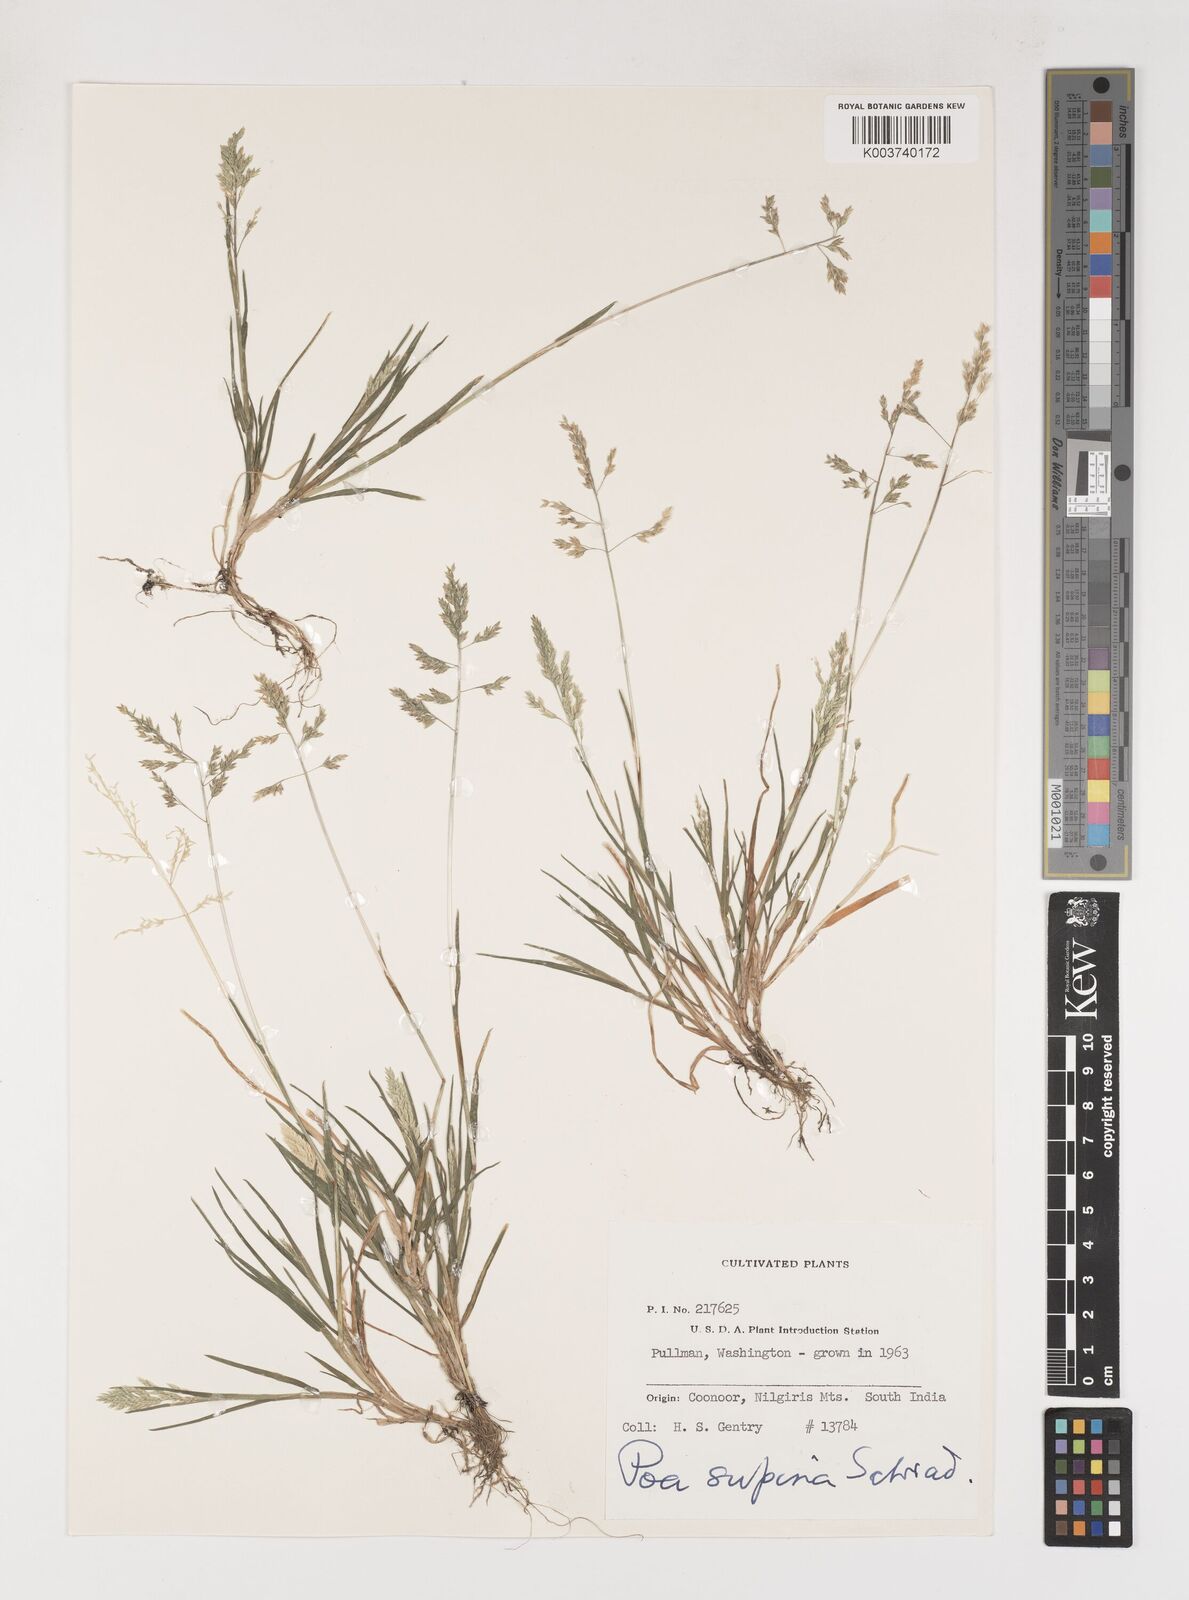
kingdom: Plantae
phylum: Tracheophyta
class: Liliopsida
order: Poales
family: Poaceae
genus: Poa
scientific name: Poa supina
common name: Supina bluegrass
